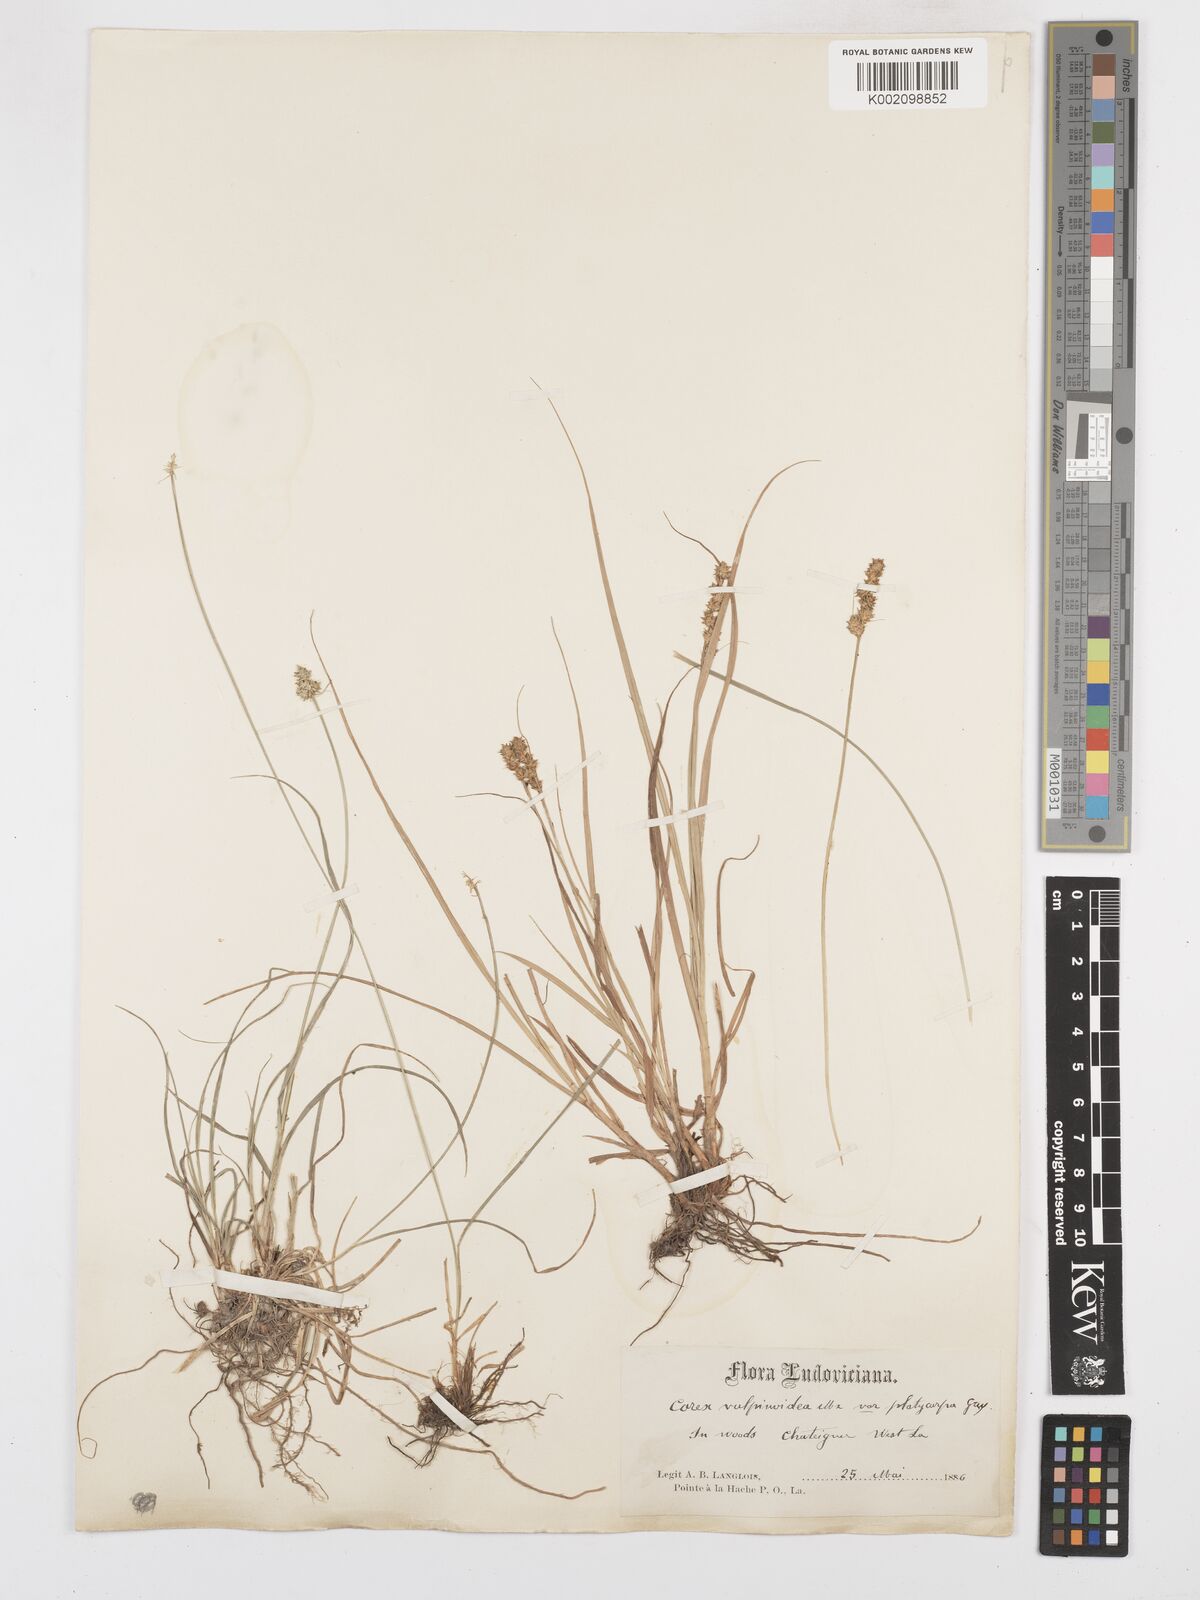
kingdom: Plantae
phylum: Tracheophyta
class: Liliopsida
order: Poales
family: Cyperaceae
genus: Carex
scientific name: Carex annectens
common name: Large fox sedge
